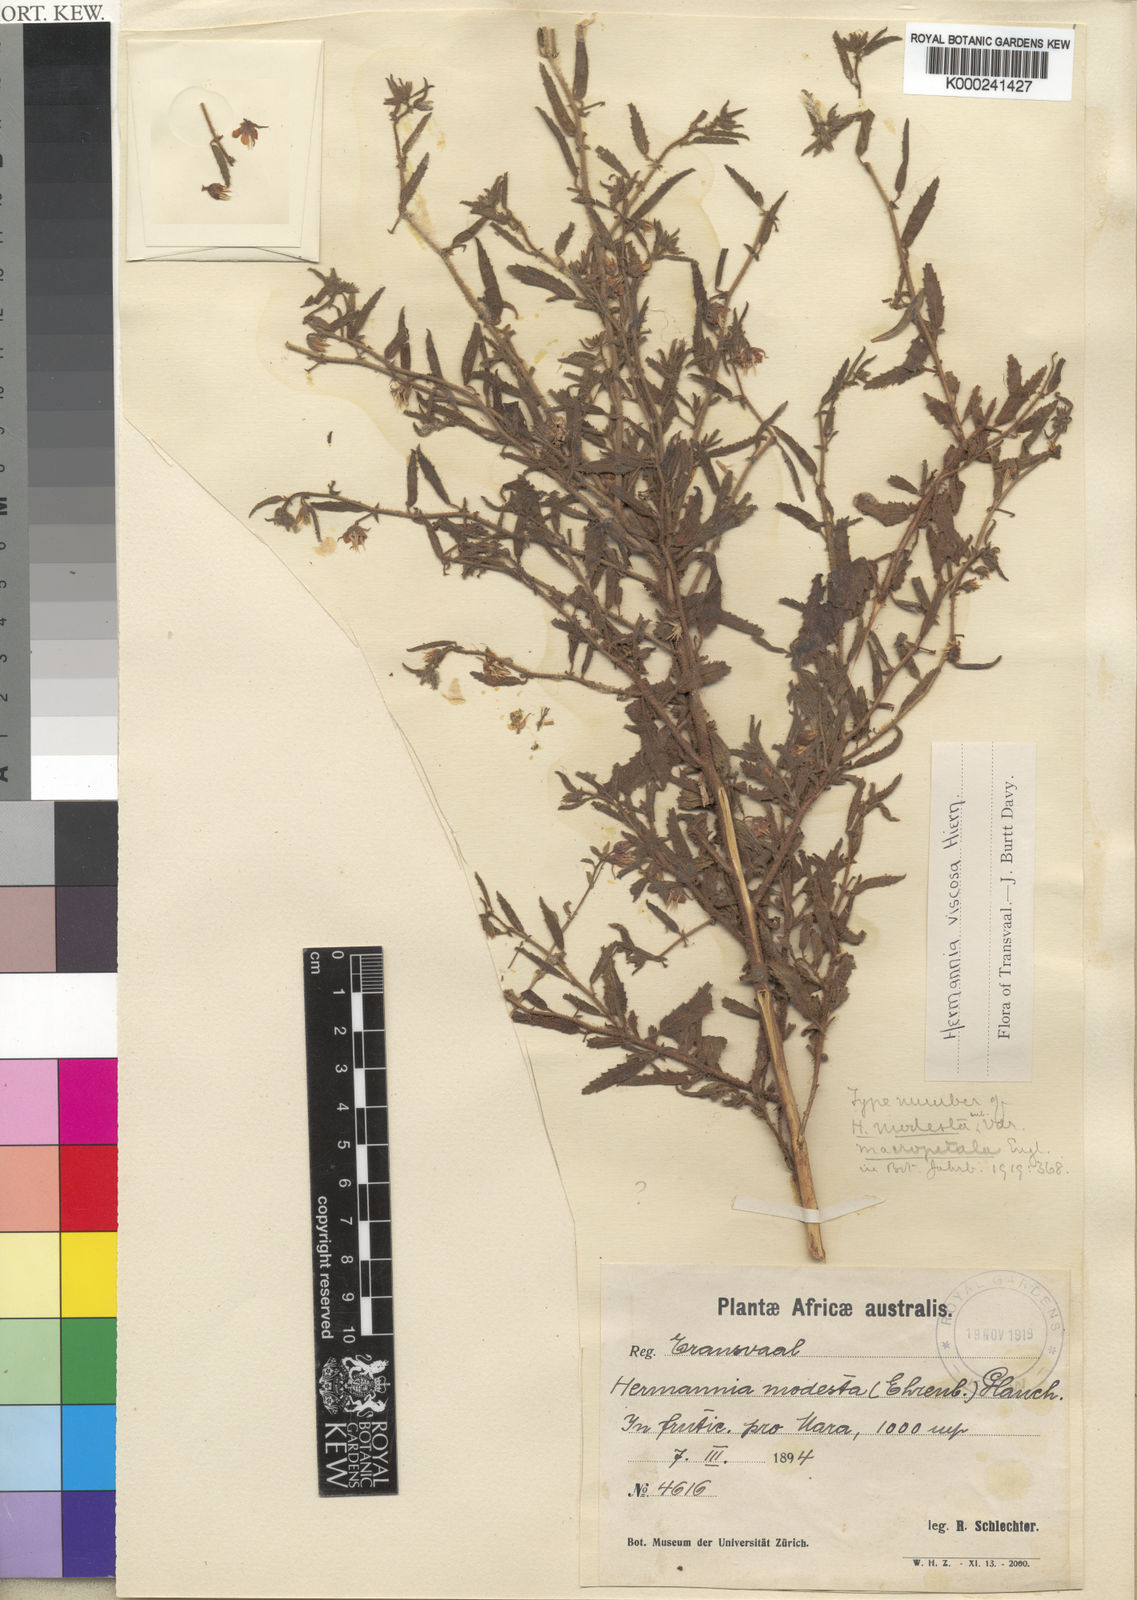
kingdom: Plantae
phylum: Tracheophyta
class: Magnoliopsida
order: Malvales
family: Malvaceae
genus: Hermannia
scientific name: Hermannia viscosa
